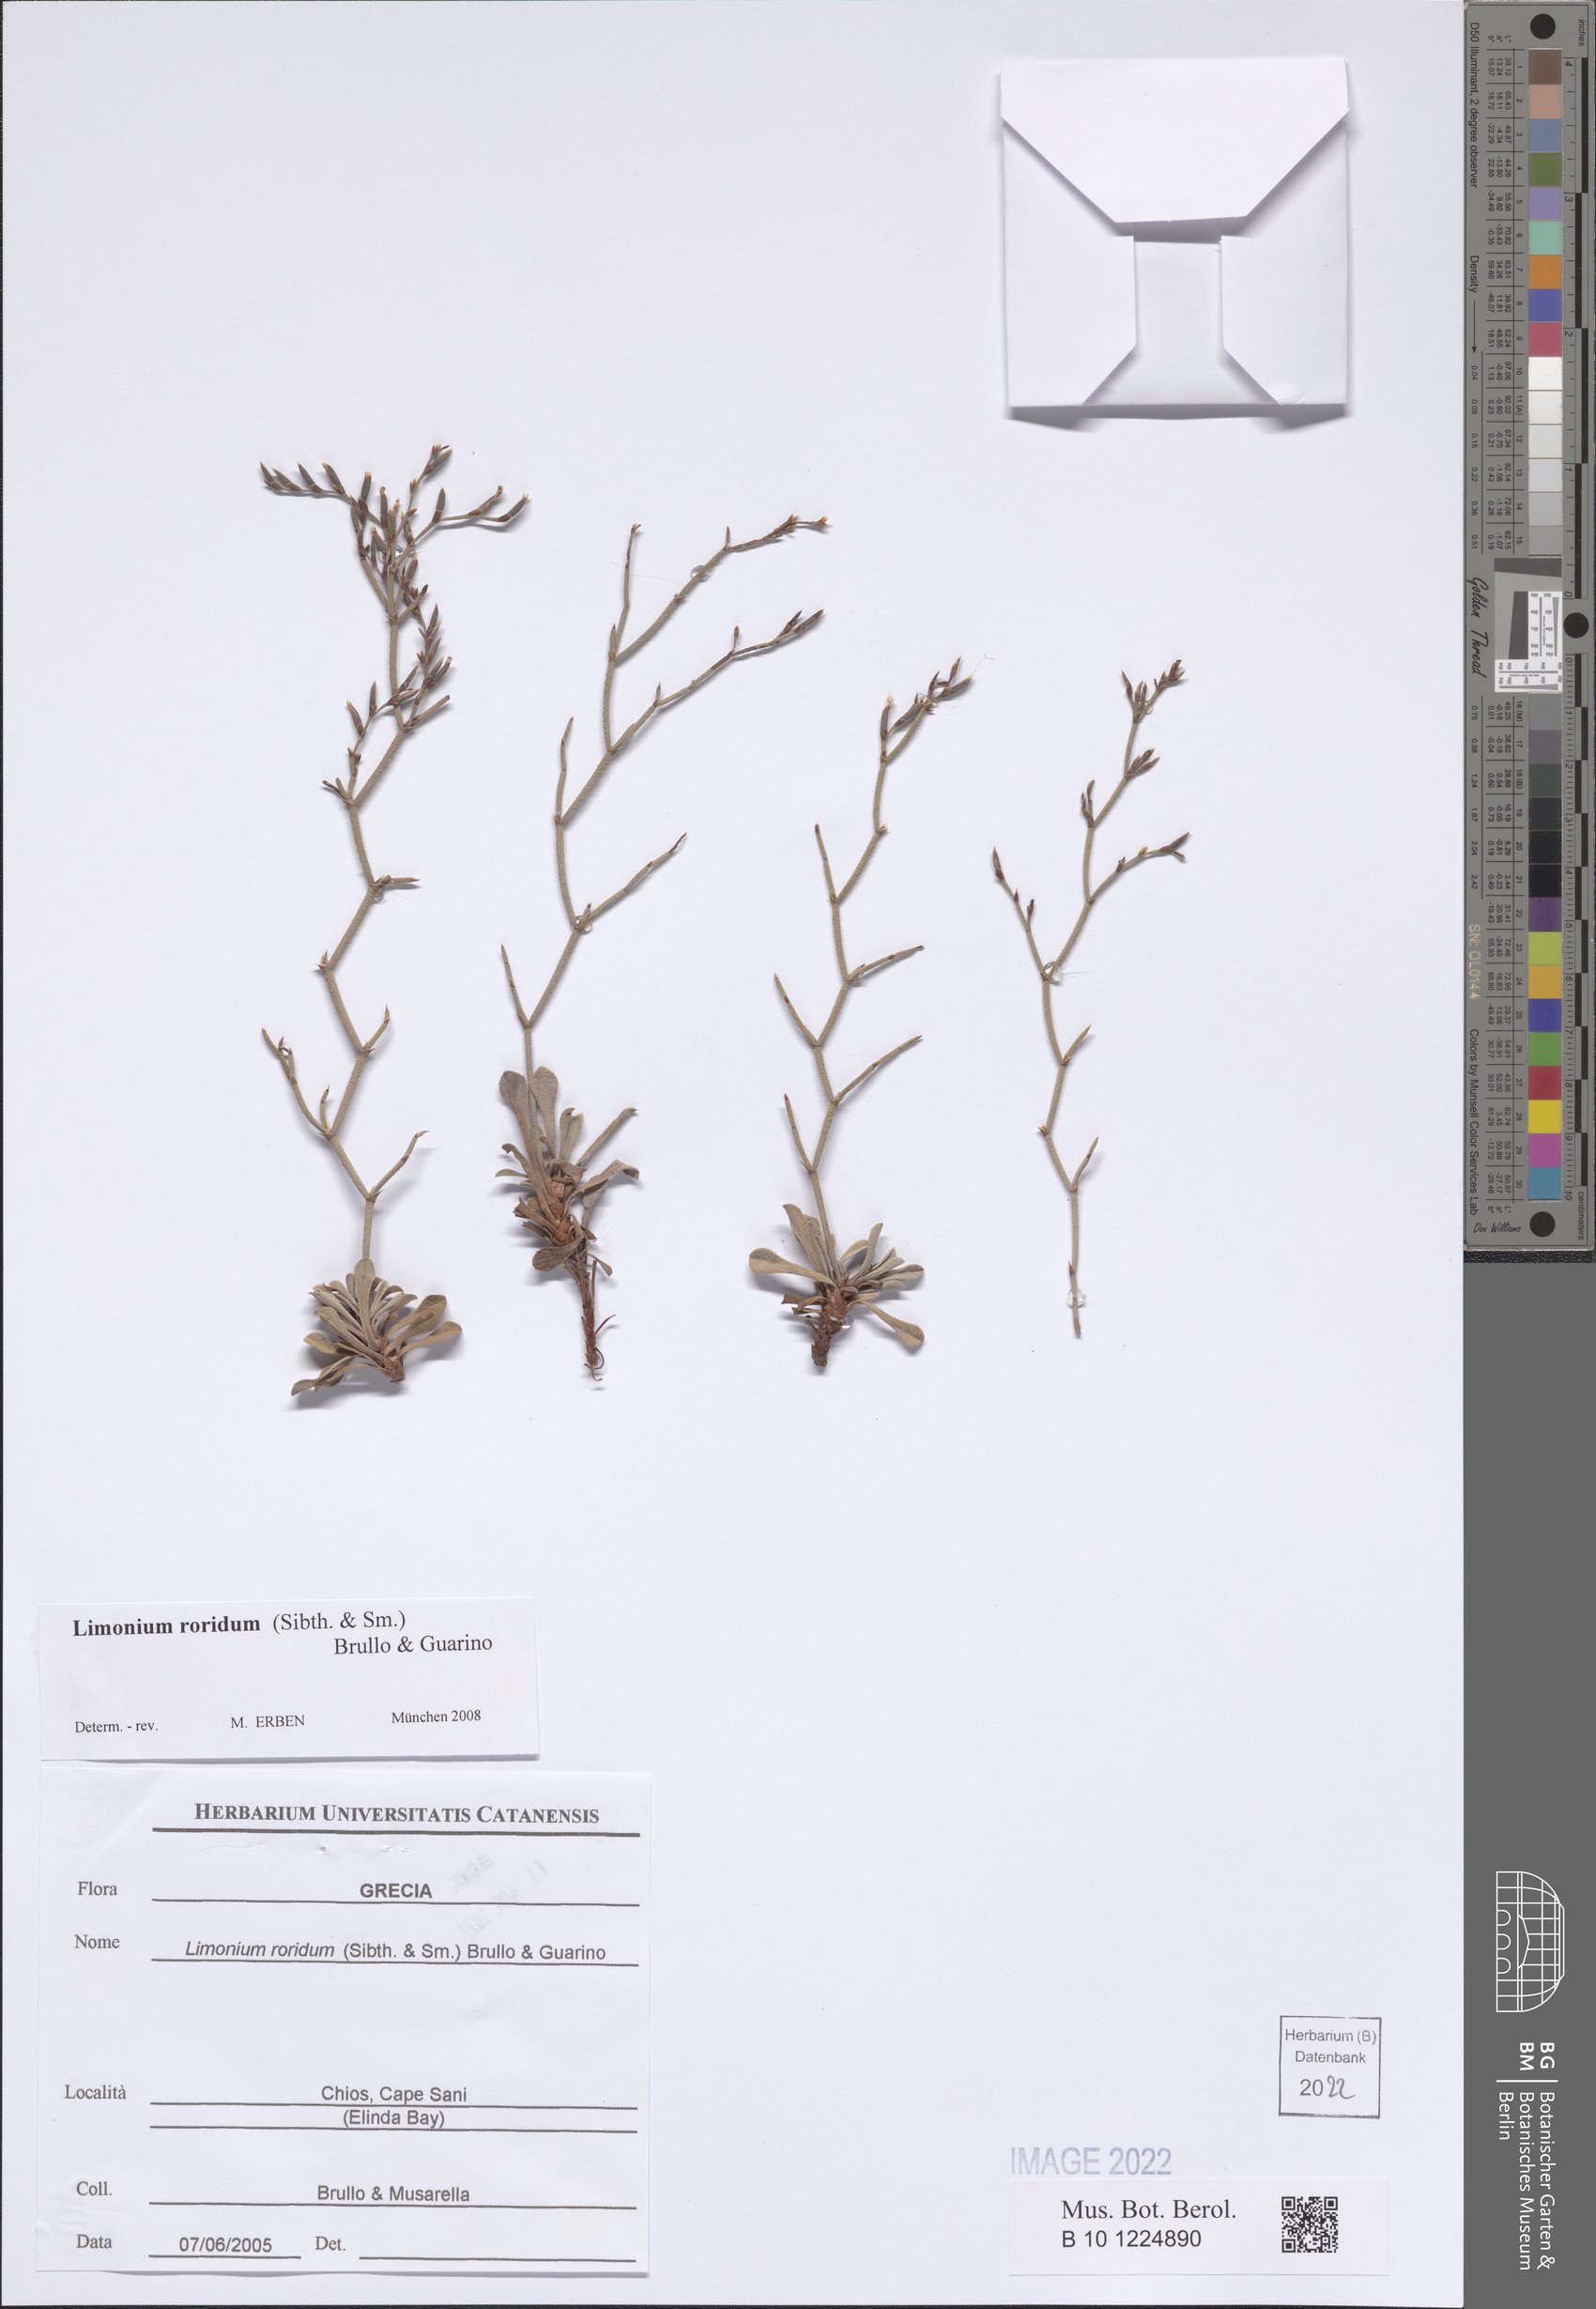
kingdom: Plantae
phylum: Tracheophyta
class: Magnoliopsida
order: Caryophyllales
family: Plumbaginaceae
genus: Limonium
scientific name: Limonium roridum
